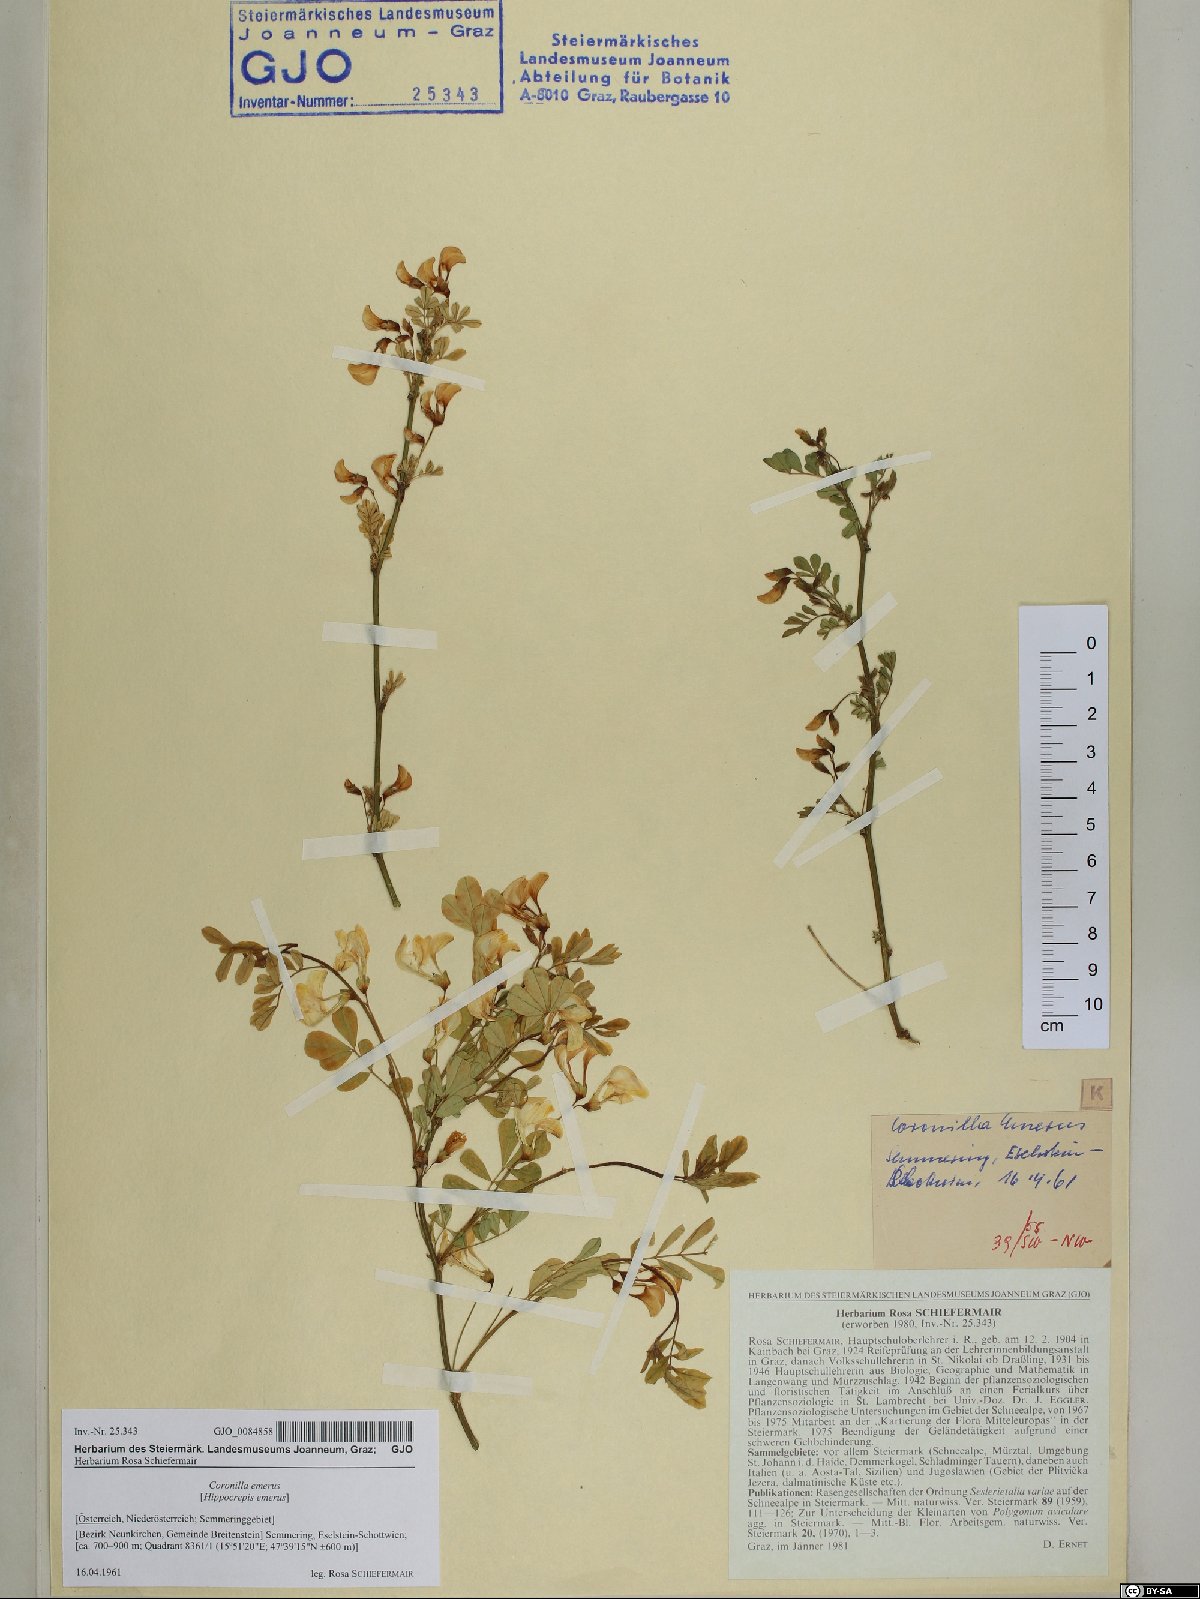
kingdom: Plantae
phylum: Tracheophyta
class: Magnoliopsida
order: Fabales
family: Fabaceae
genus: Hippocrepis
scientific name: Hippocrepis emerus
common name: Scorpion senna
